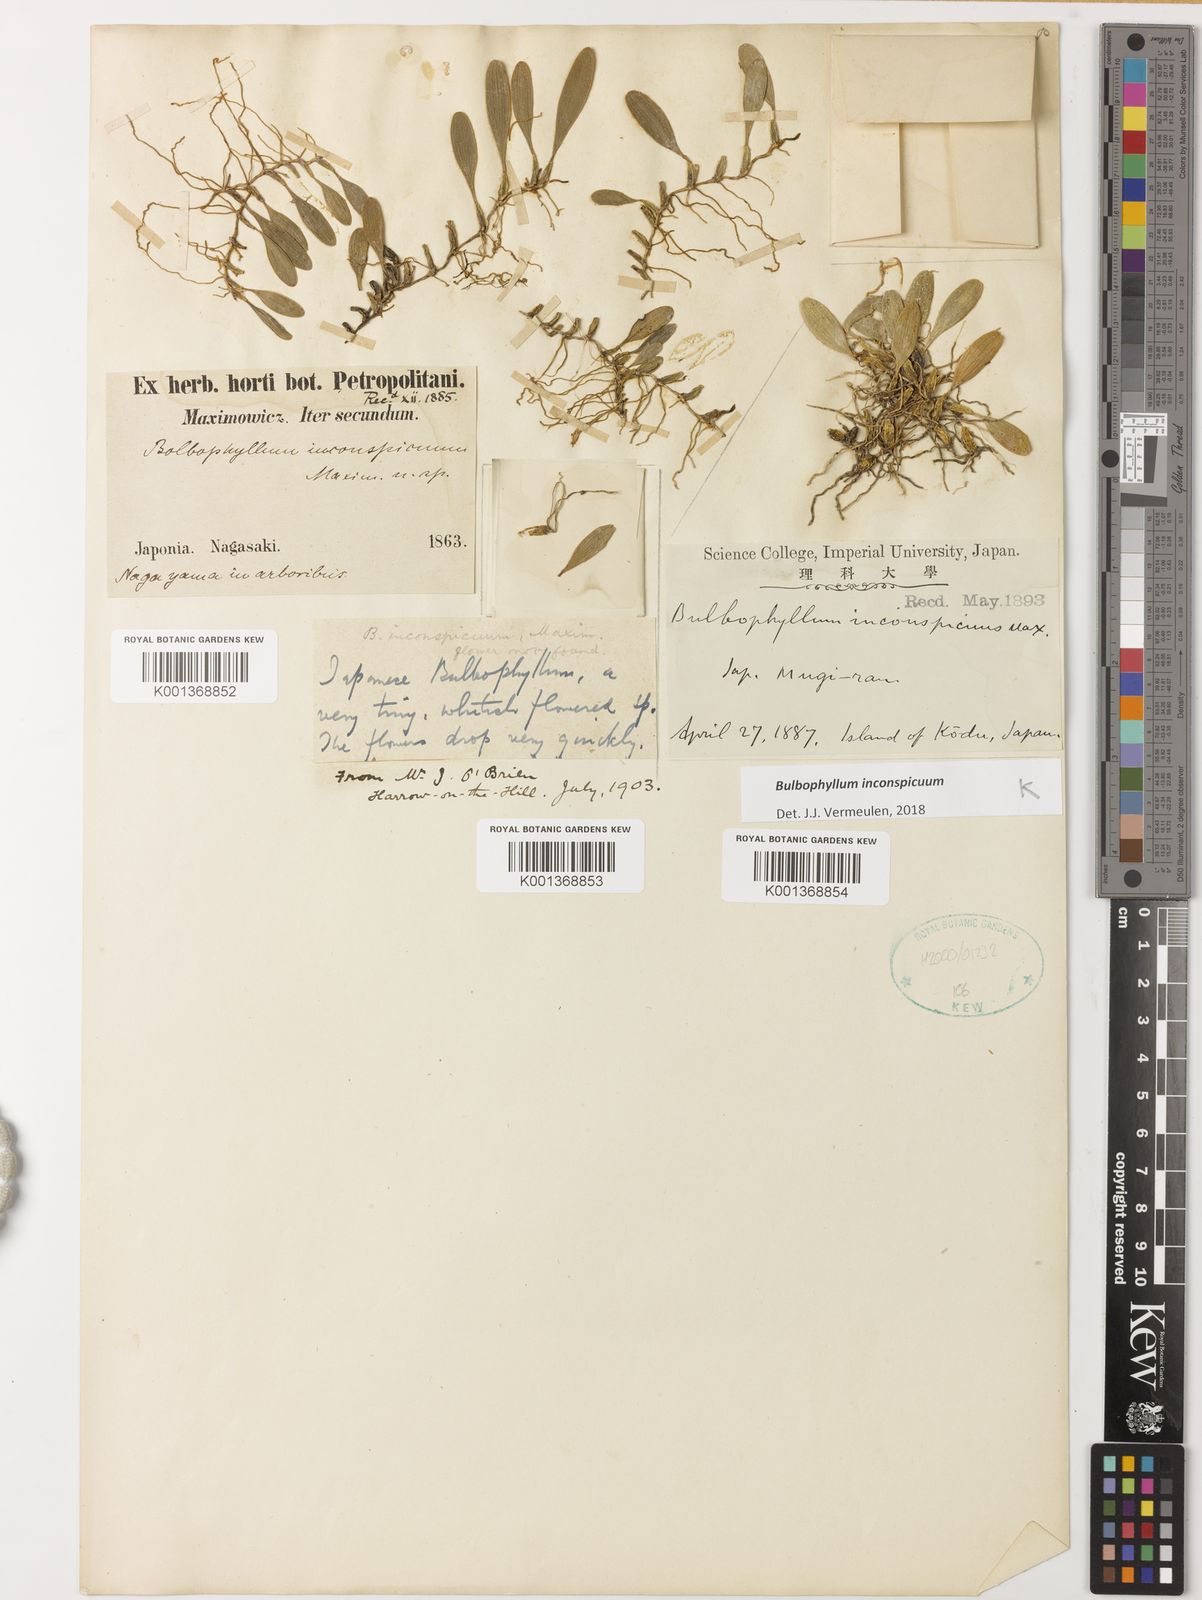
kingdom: Plantae
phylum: Tracheophyta
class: Liliopsida
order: Asparagales
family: Orchidaceae
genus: Bulbophyllum
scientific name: Bulbophyllum inconspicuum
